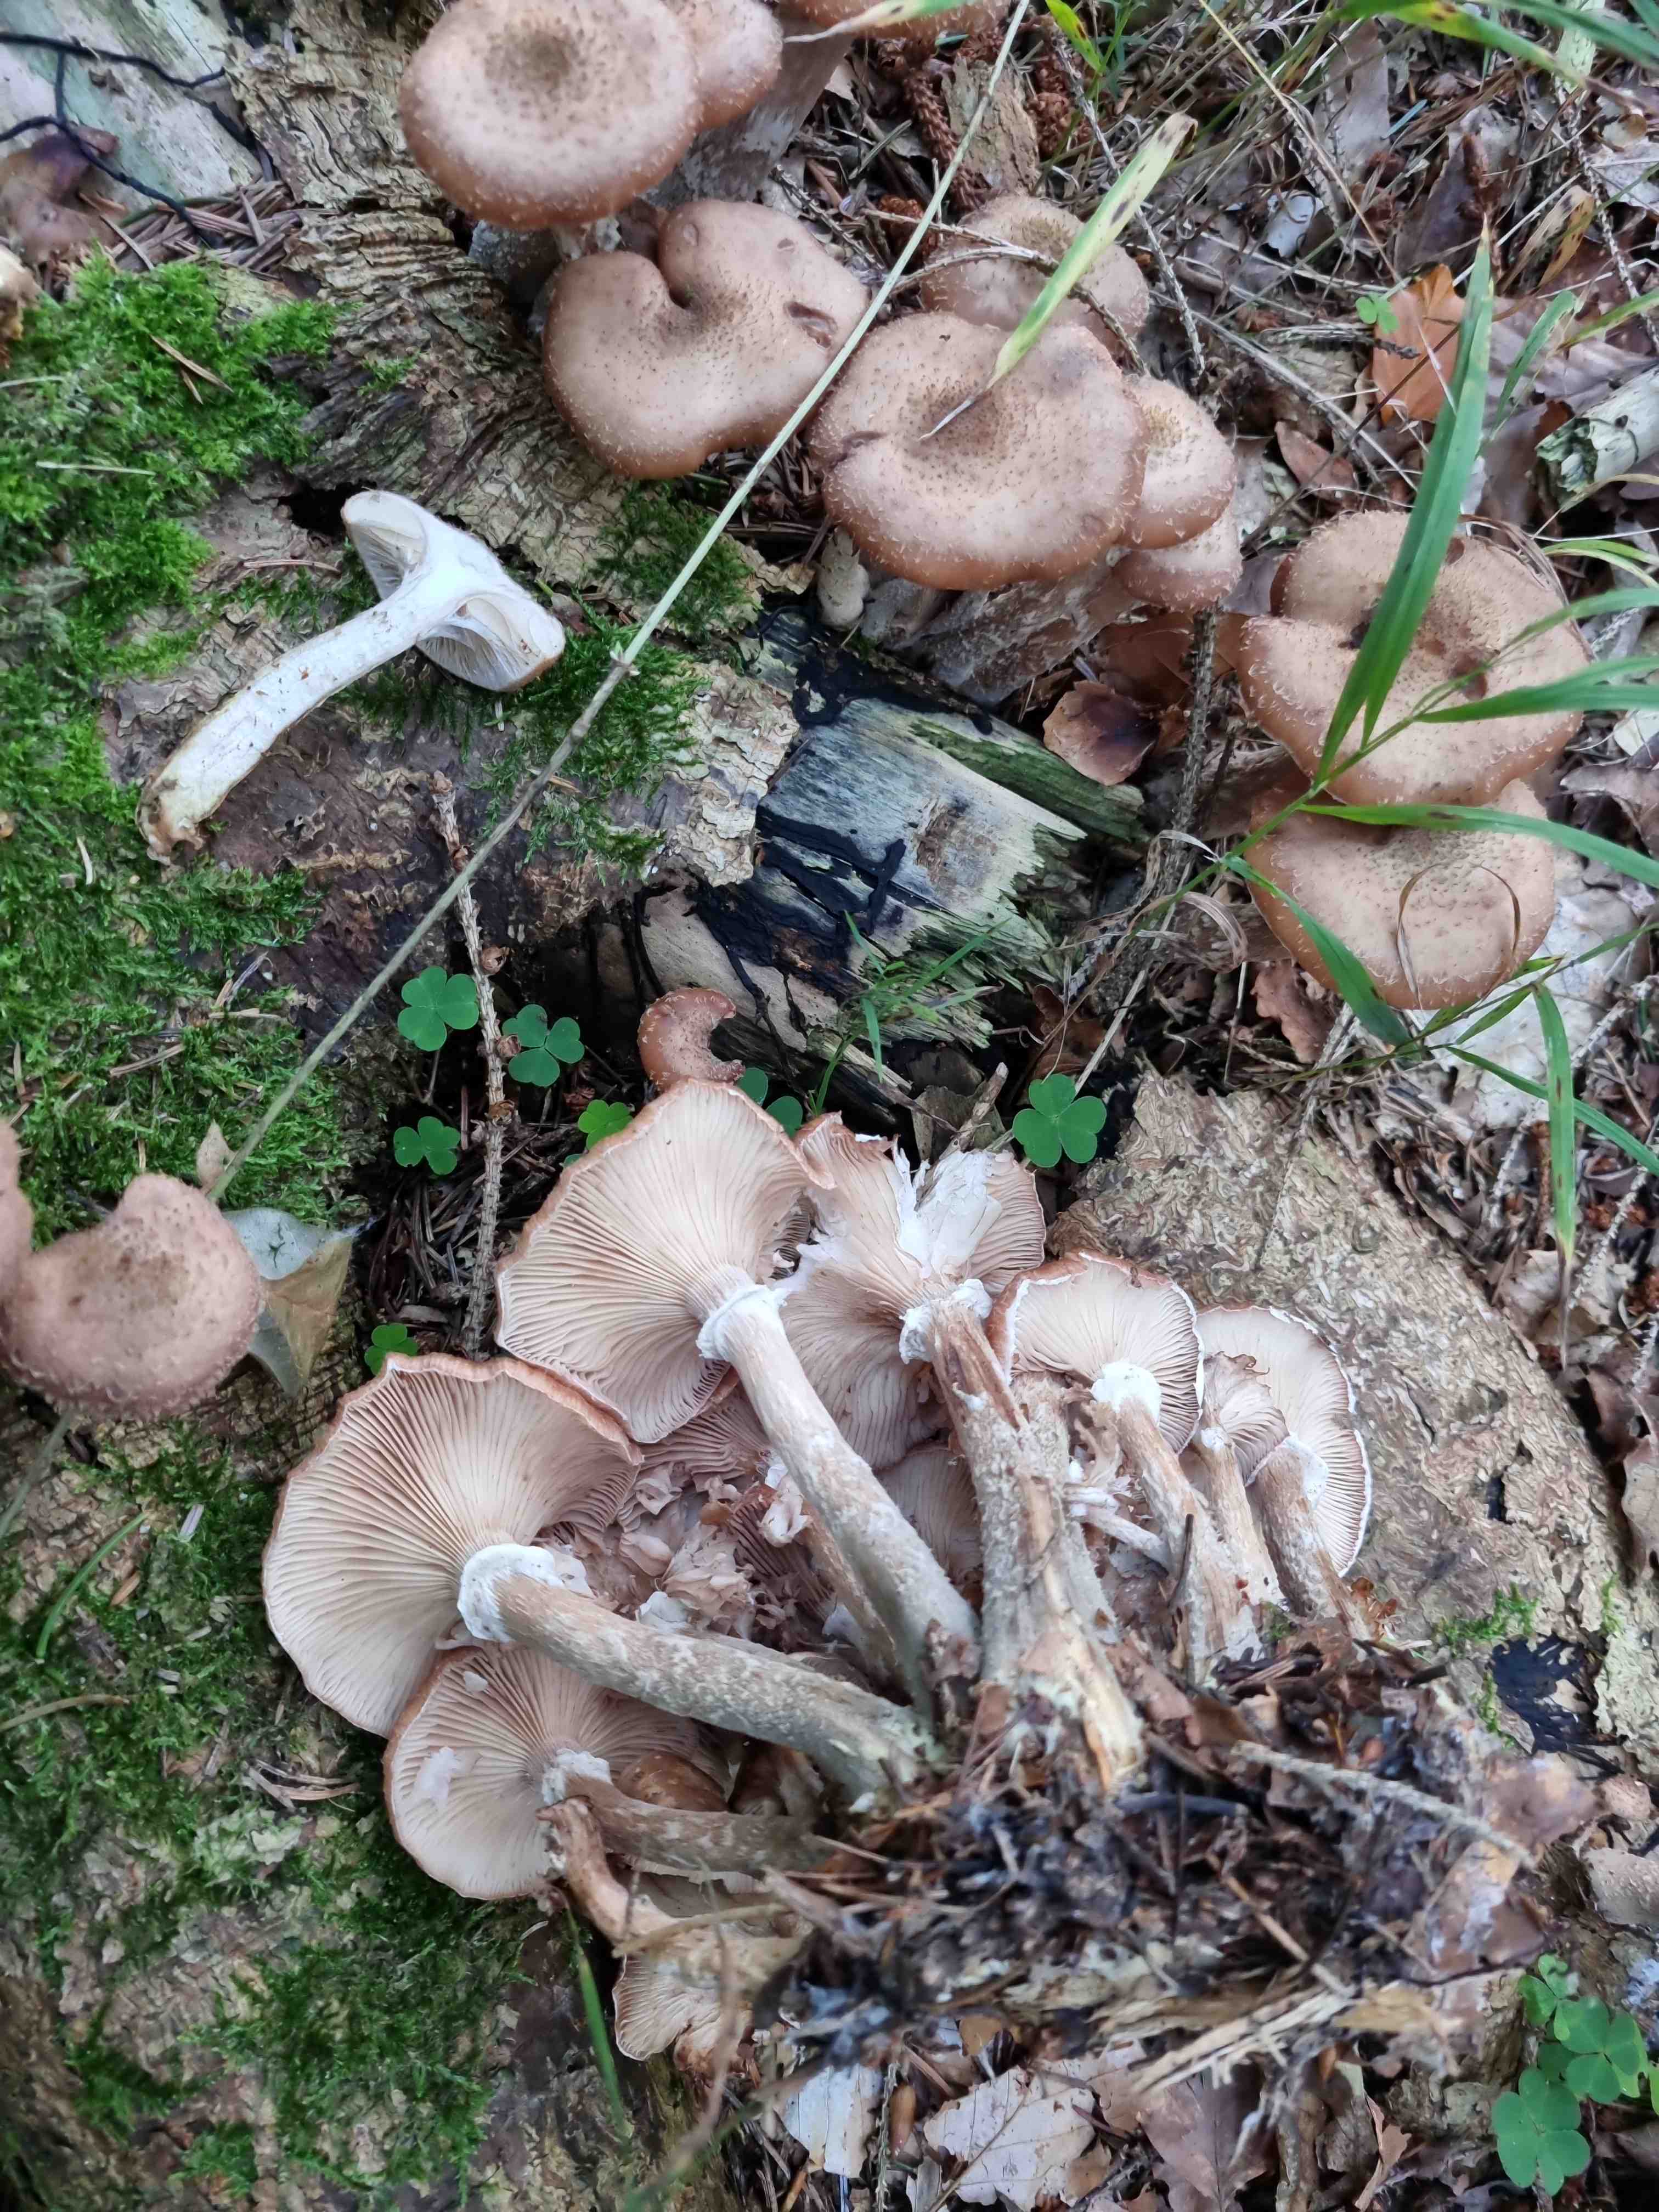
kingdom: Fungi
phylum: Basidiomycota
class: Agaricomycetes
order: Agaricales
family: Physalacriaceae
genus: Armillaria
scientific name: Armillaria ostoyae
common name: mørk honningsvamp
